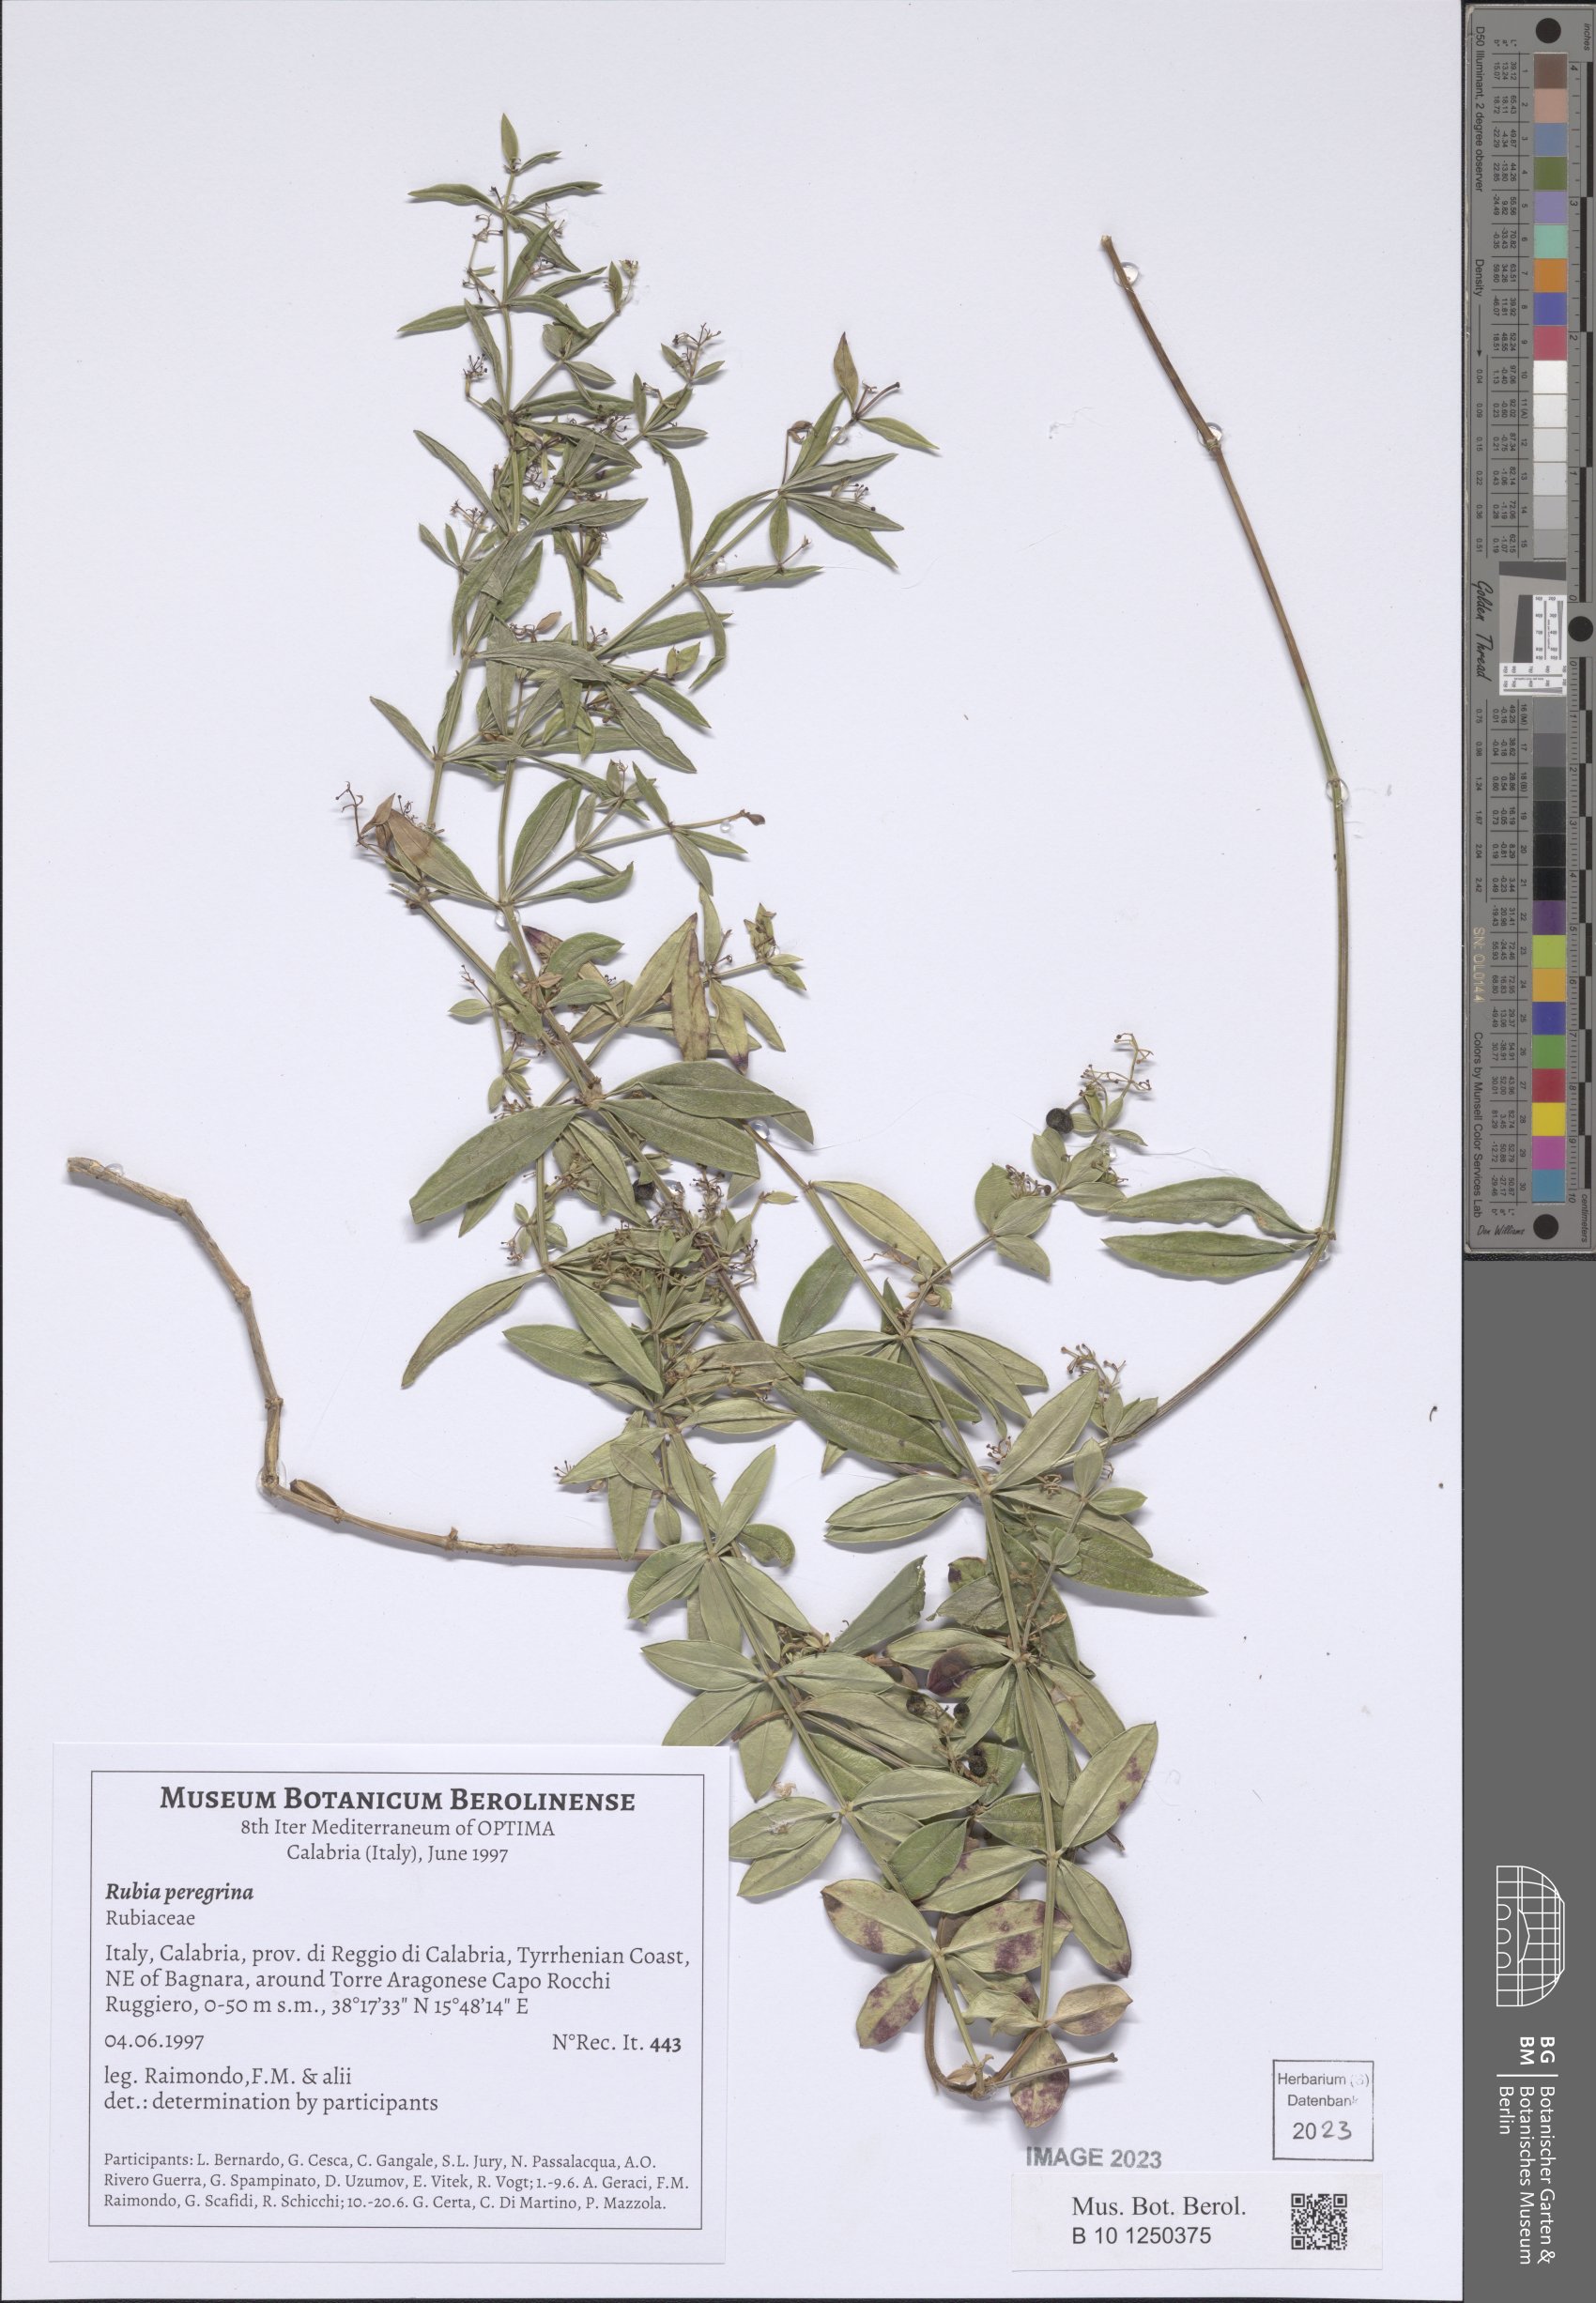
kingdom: Plantae
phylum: Tracheophyta
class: Magnoliopsida
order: Gentianales
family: Rubiaceae
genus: Rubia
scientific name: Rubia peregrina
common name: Wild madder
